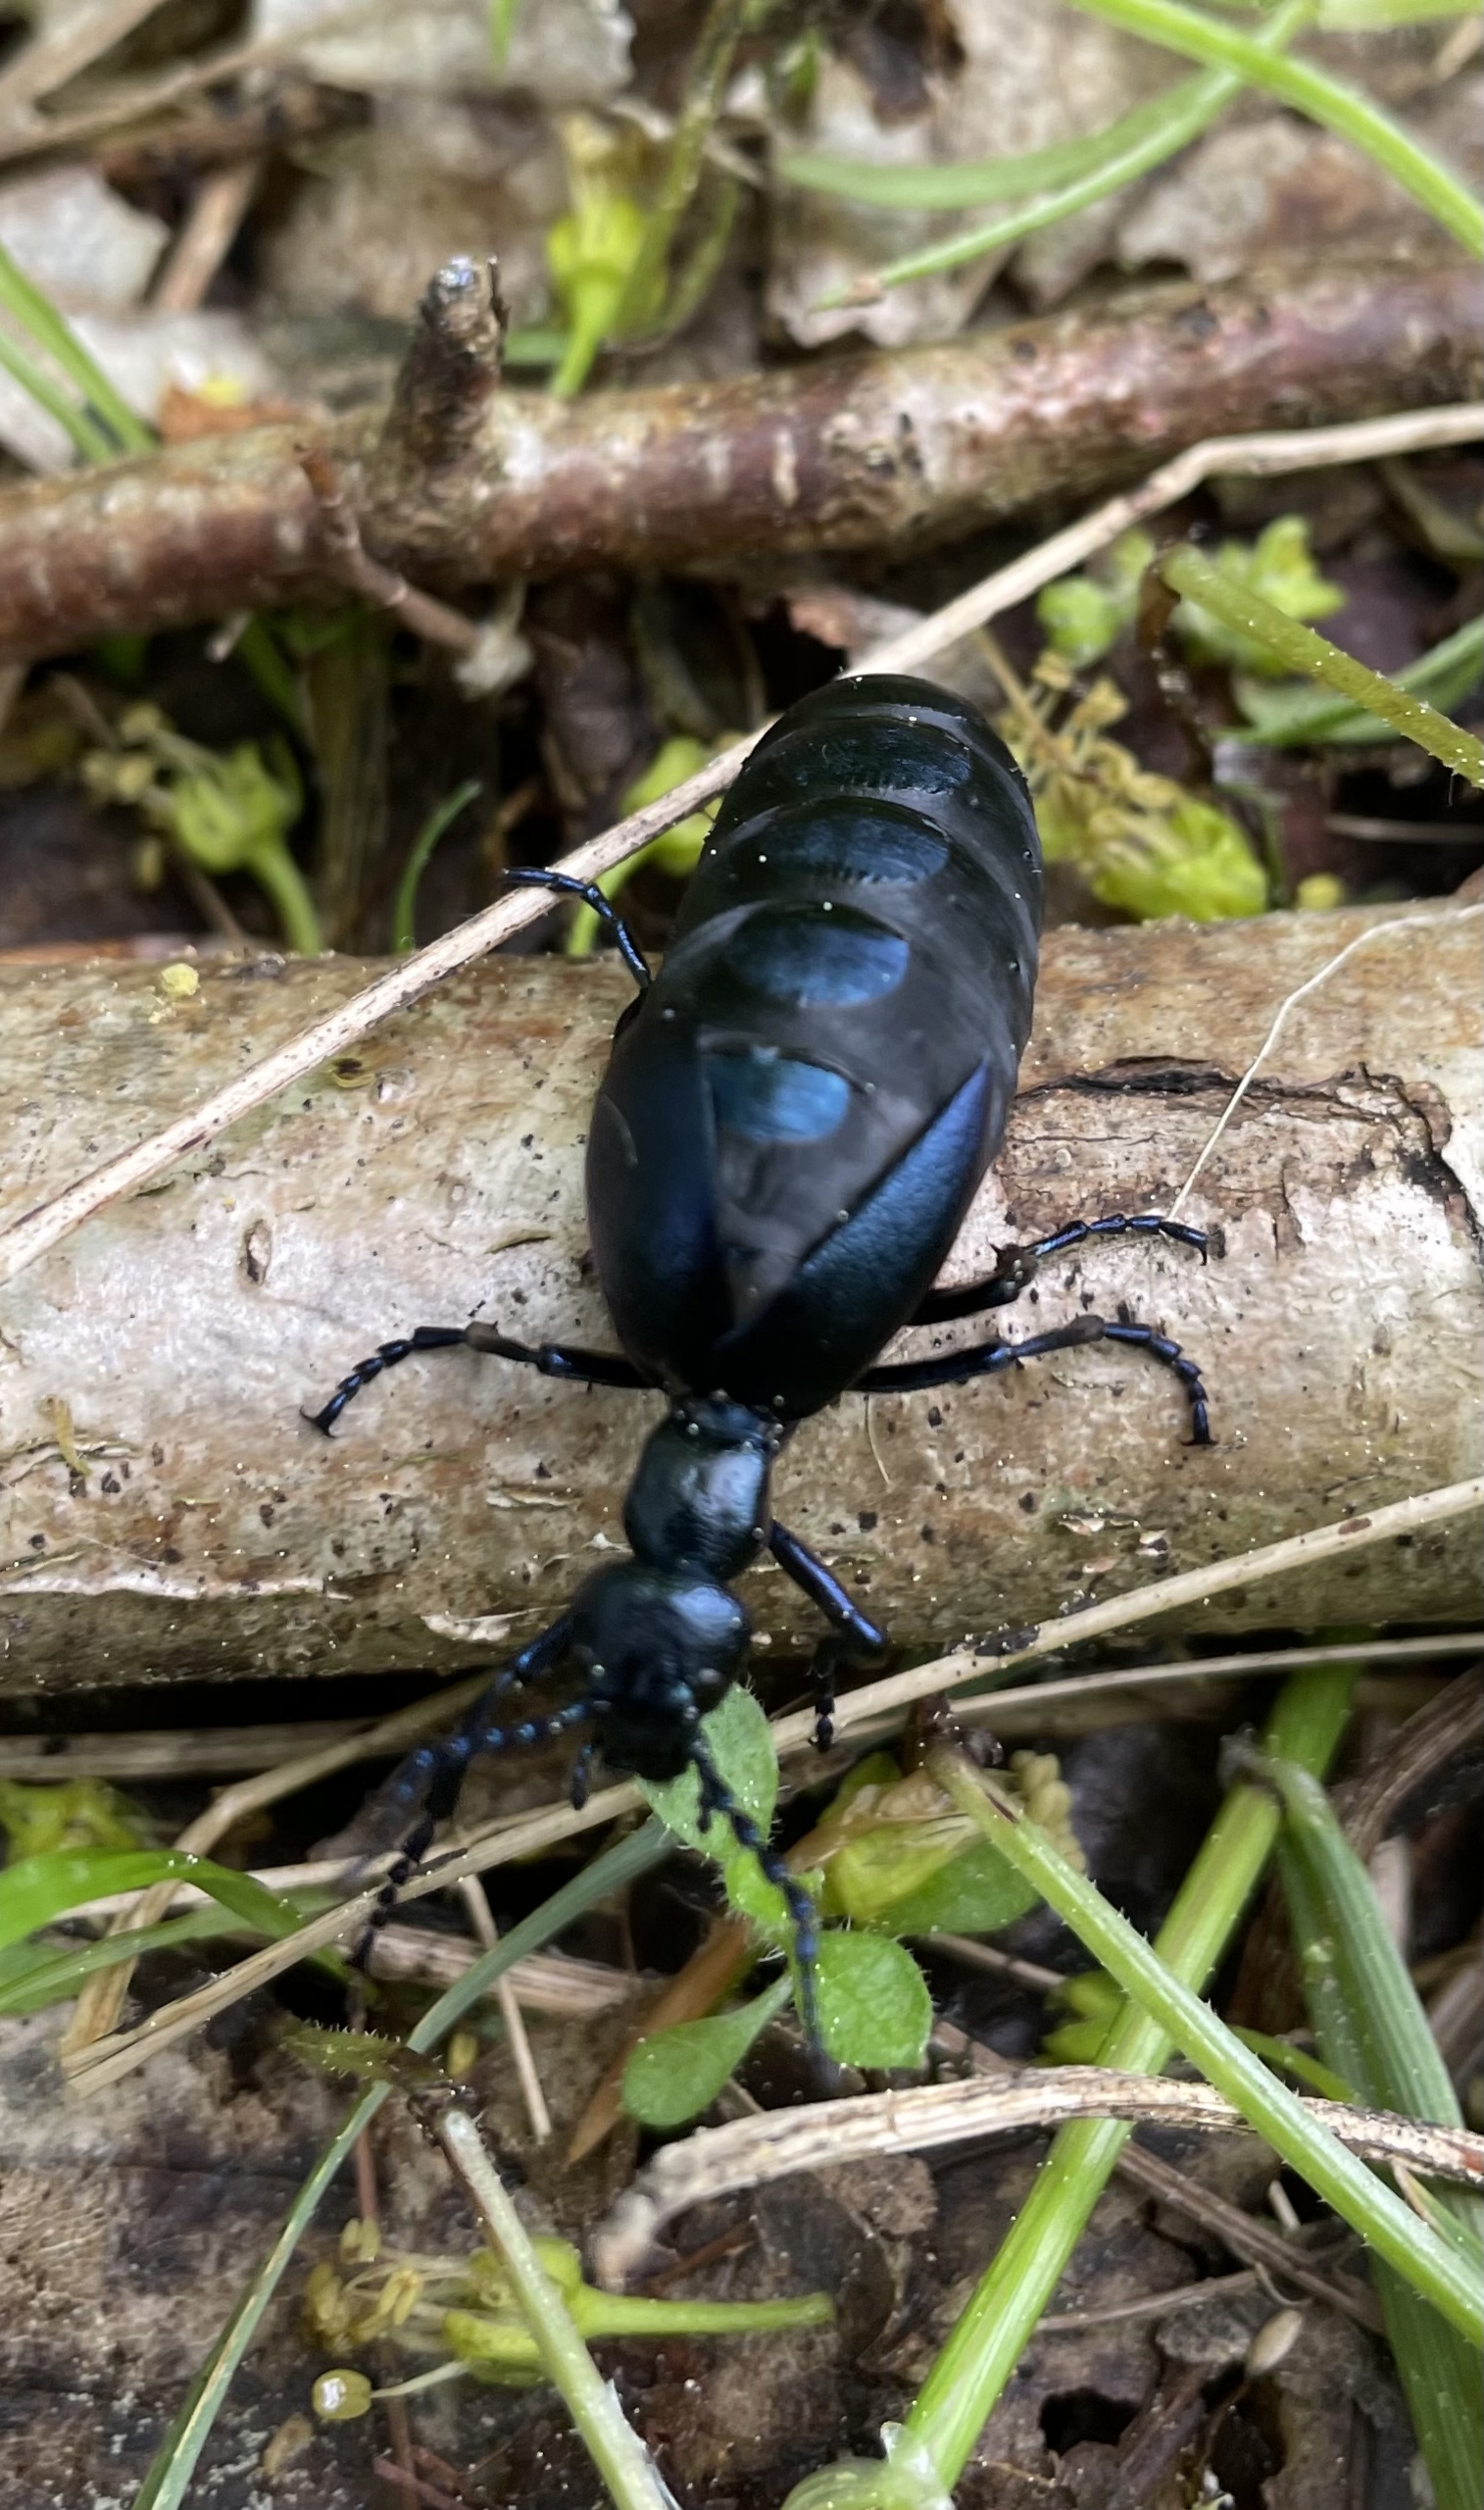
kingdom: Animalia
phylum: Arthropoda
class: Insecta
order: Coleoptera
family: Meloidae
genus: Meloe
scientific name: Meloe violaceus
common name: Blå oliebille
